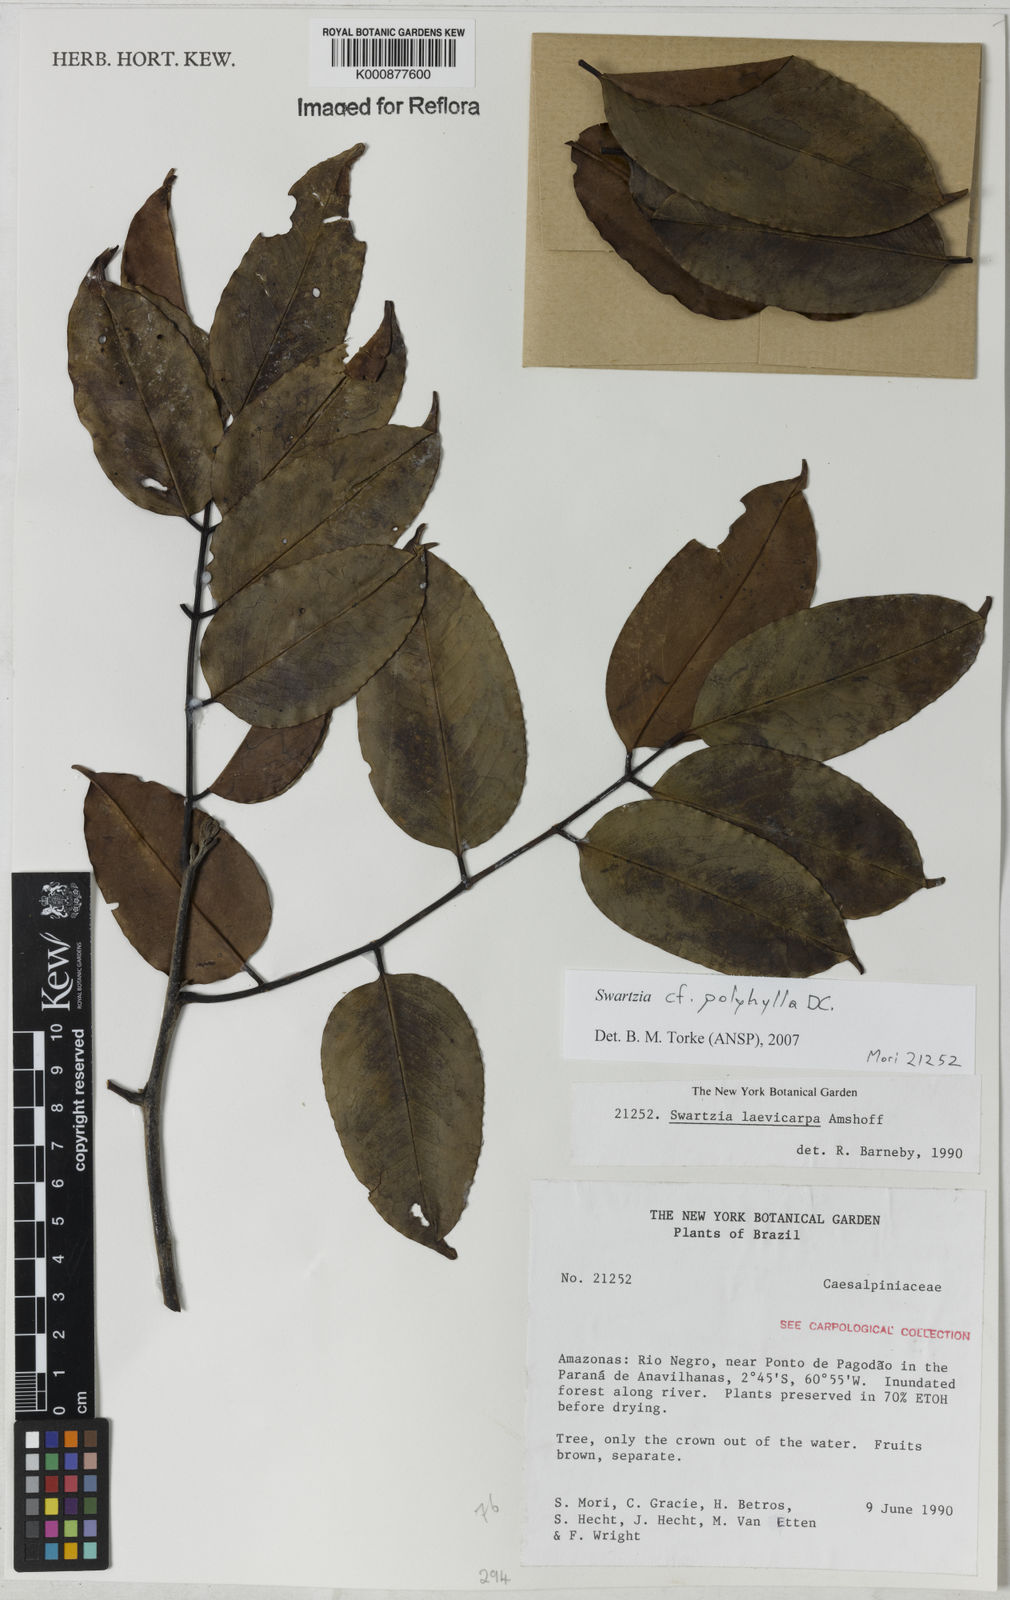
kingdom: Plantae
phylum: Tracheophyta
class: Magnoliopsida
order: Fabales
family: Fabaceae
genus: Swartzia
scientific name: Swartzia polyphylla
